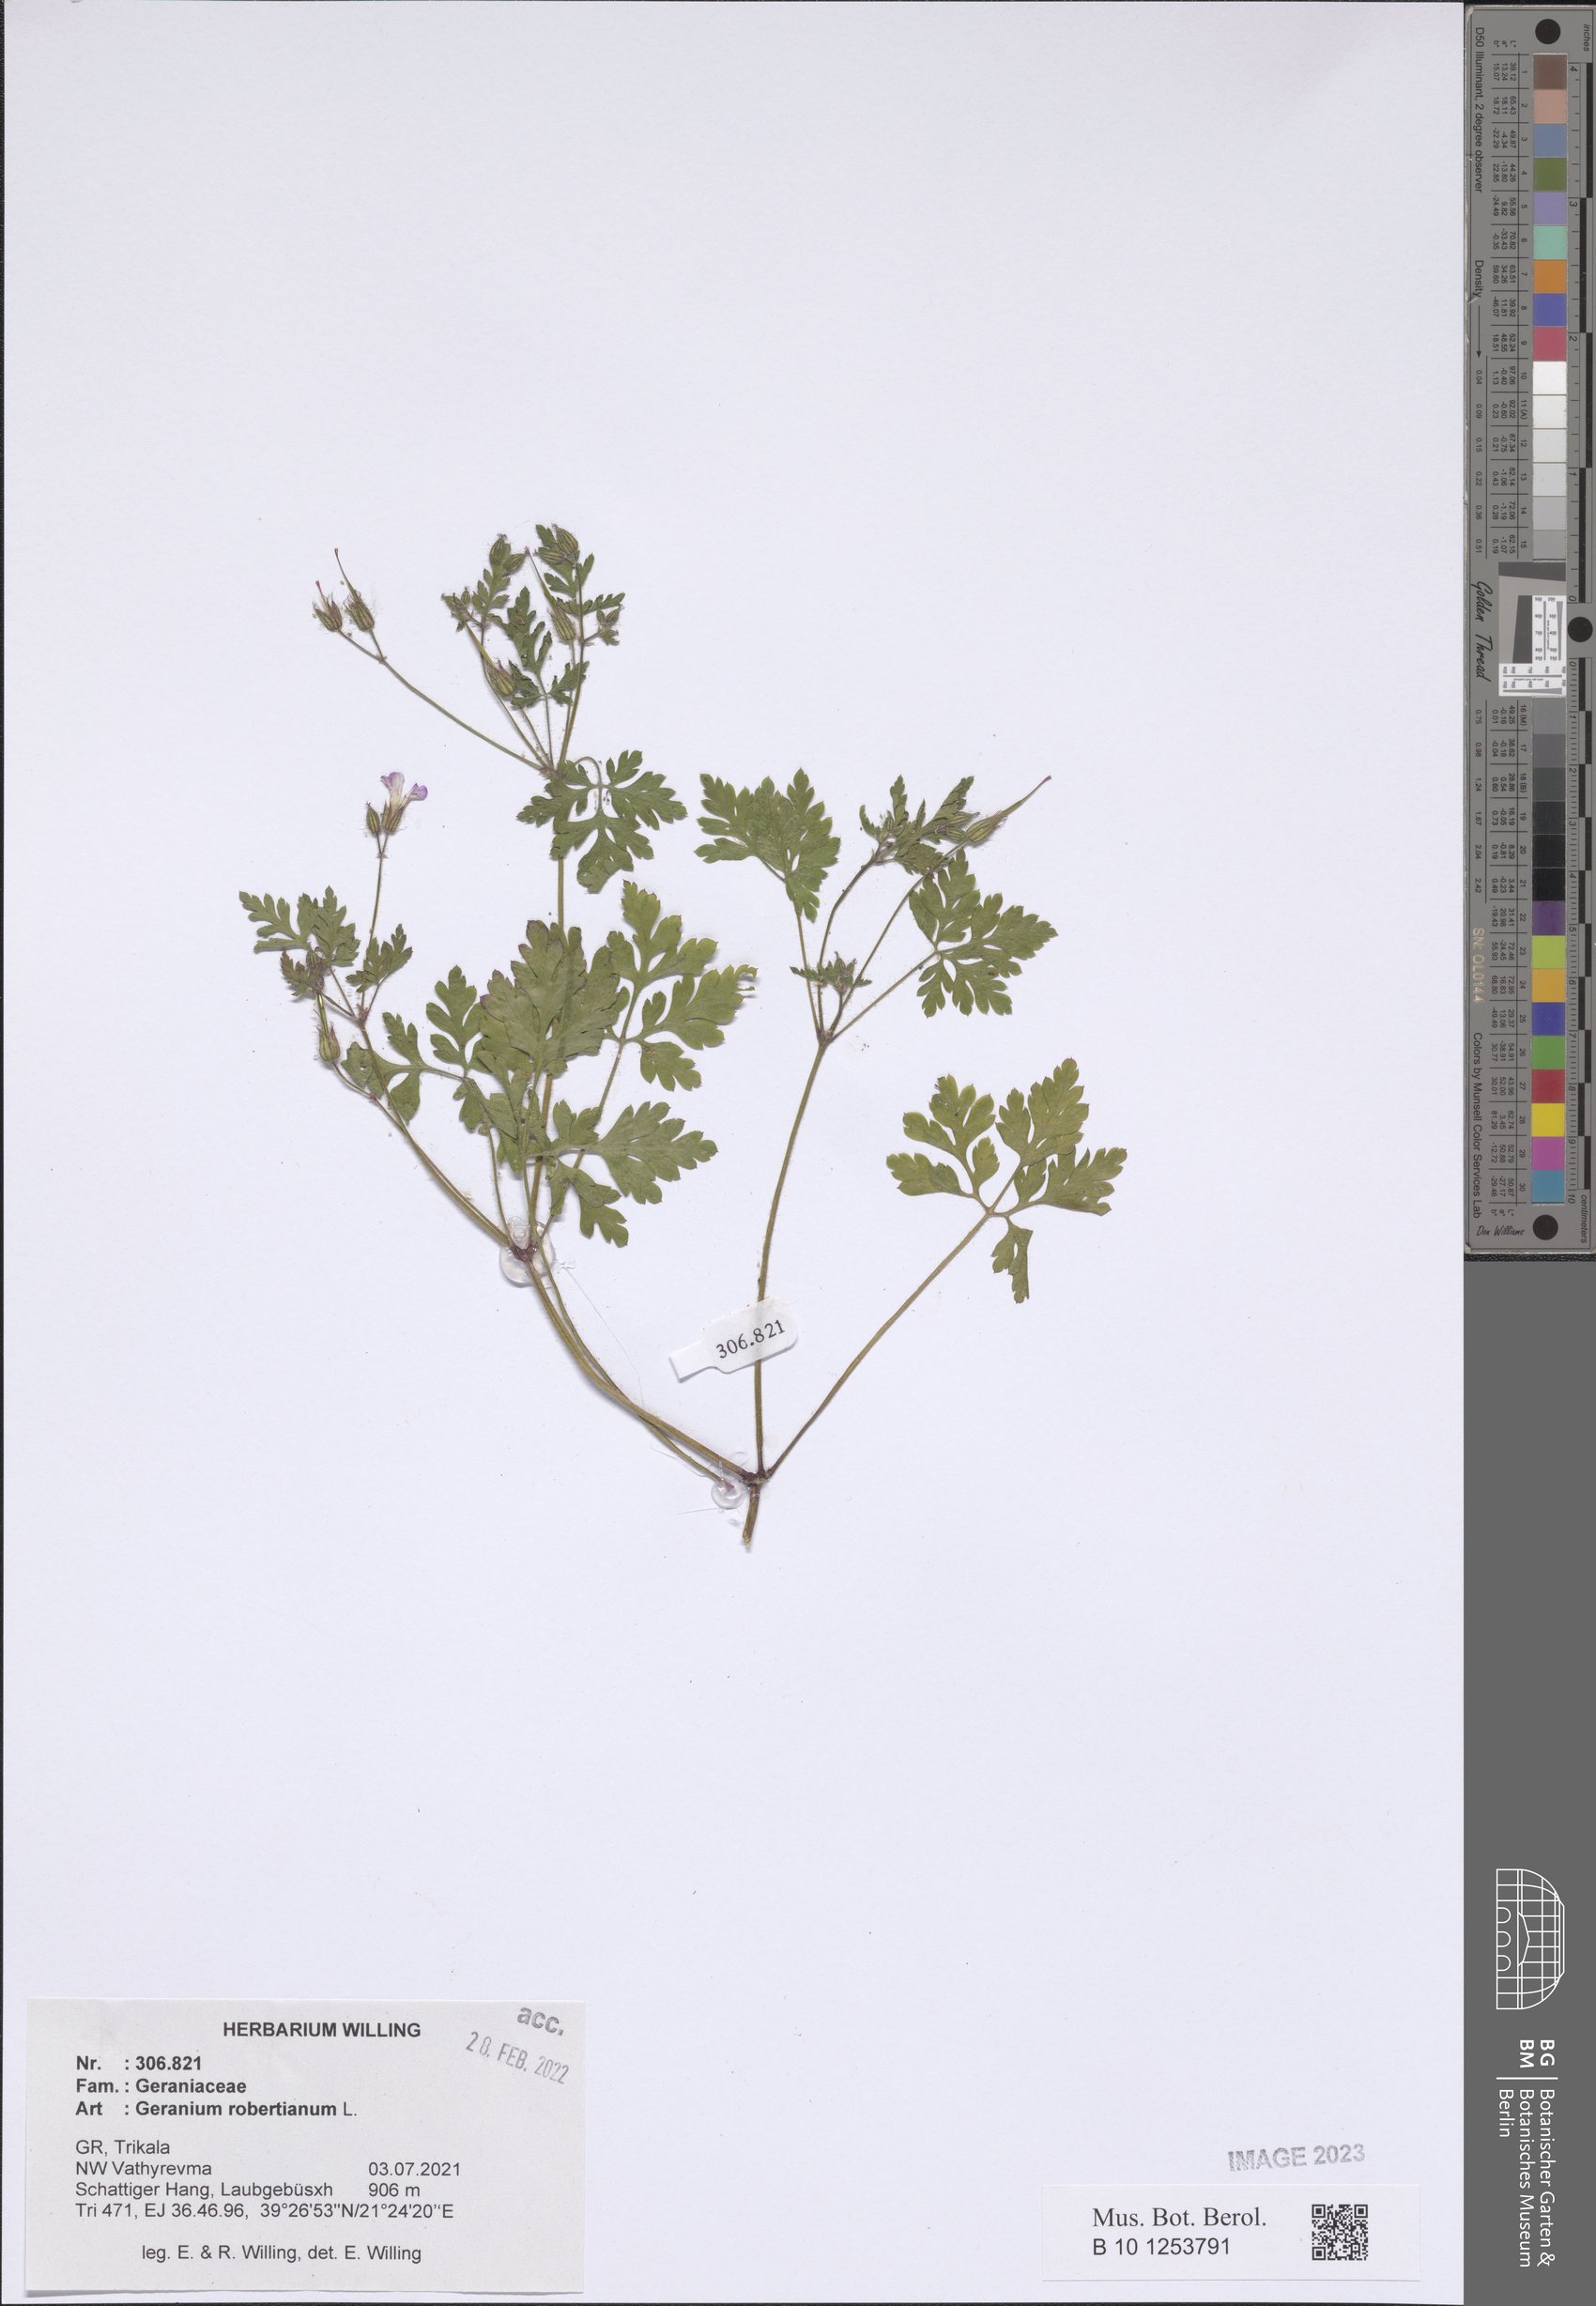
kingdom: Plantae
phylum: Tracheophyta
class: Magnoliopsida
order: Geraniales
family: Geraniaceae
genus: Geranium
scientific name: Geranium robertianum
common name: Herb-robert
